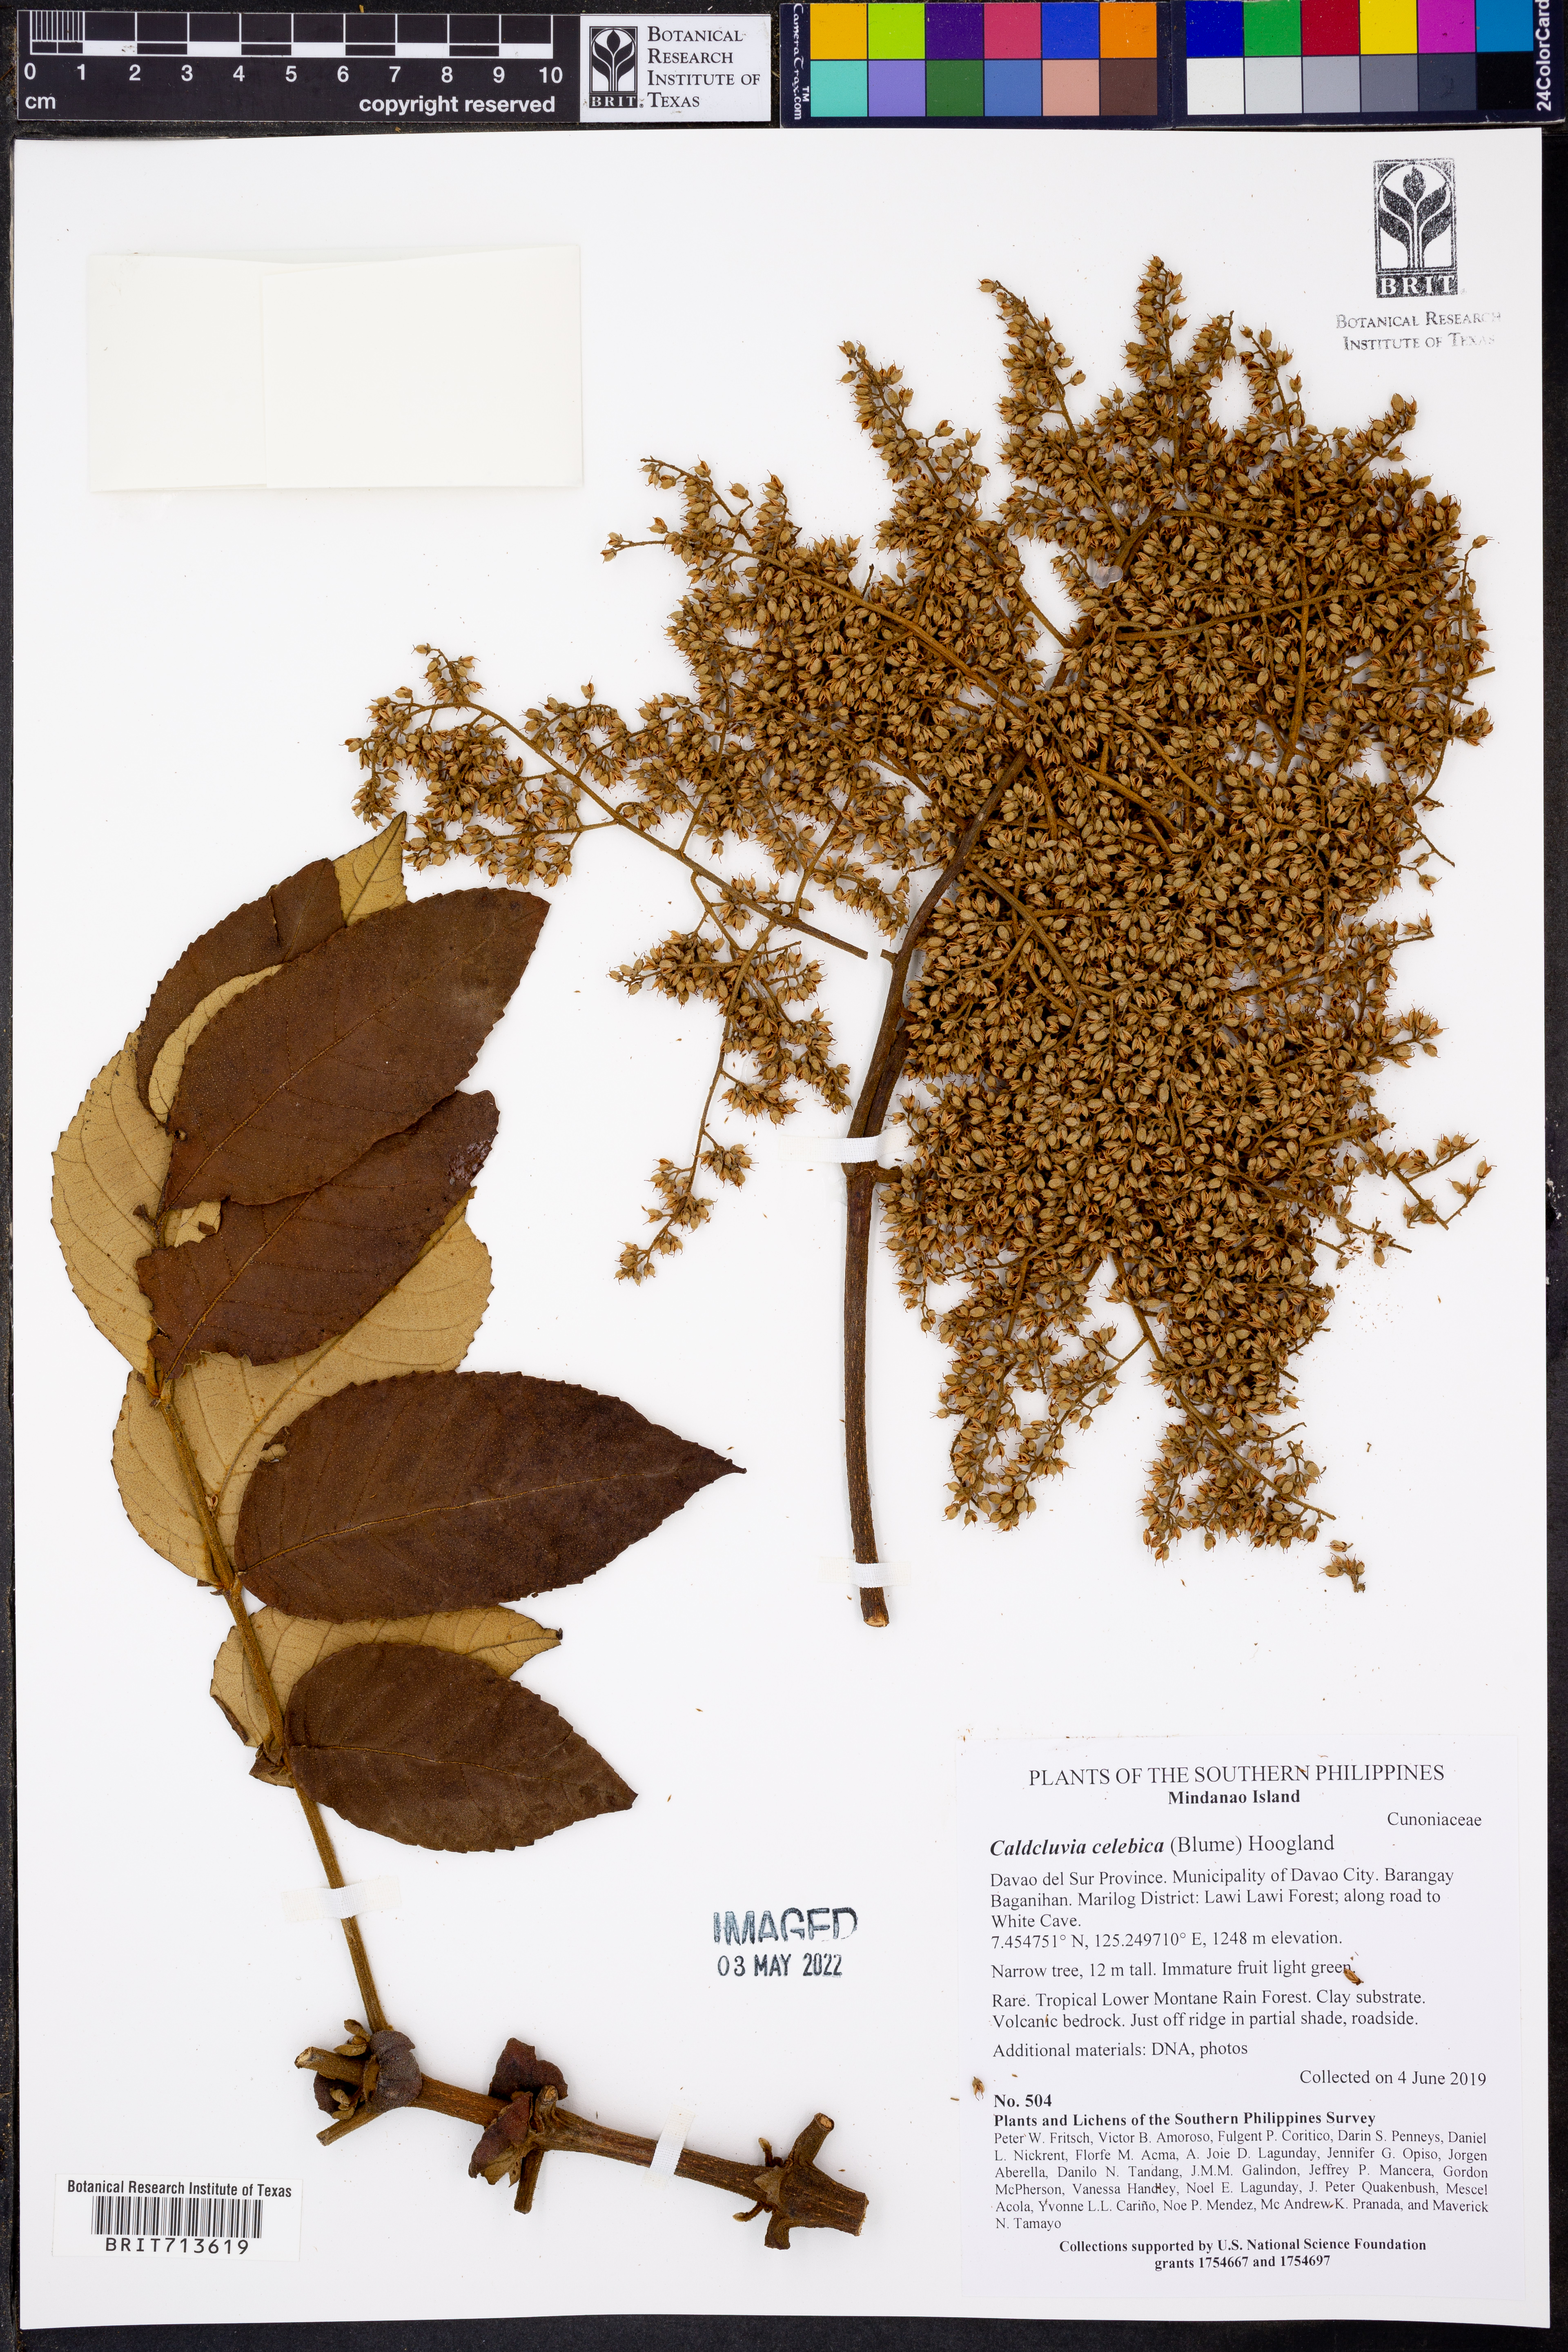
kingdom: Plantae
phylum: Tracheophyta
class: Magnoliopsida
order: Oxalidales
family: Cunoniaceae
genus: Ackama
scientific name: Ackama celebica
